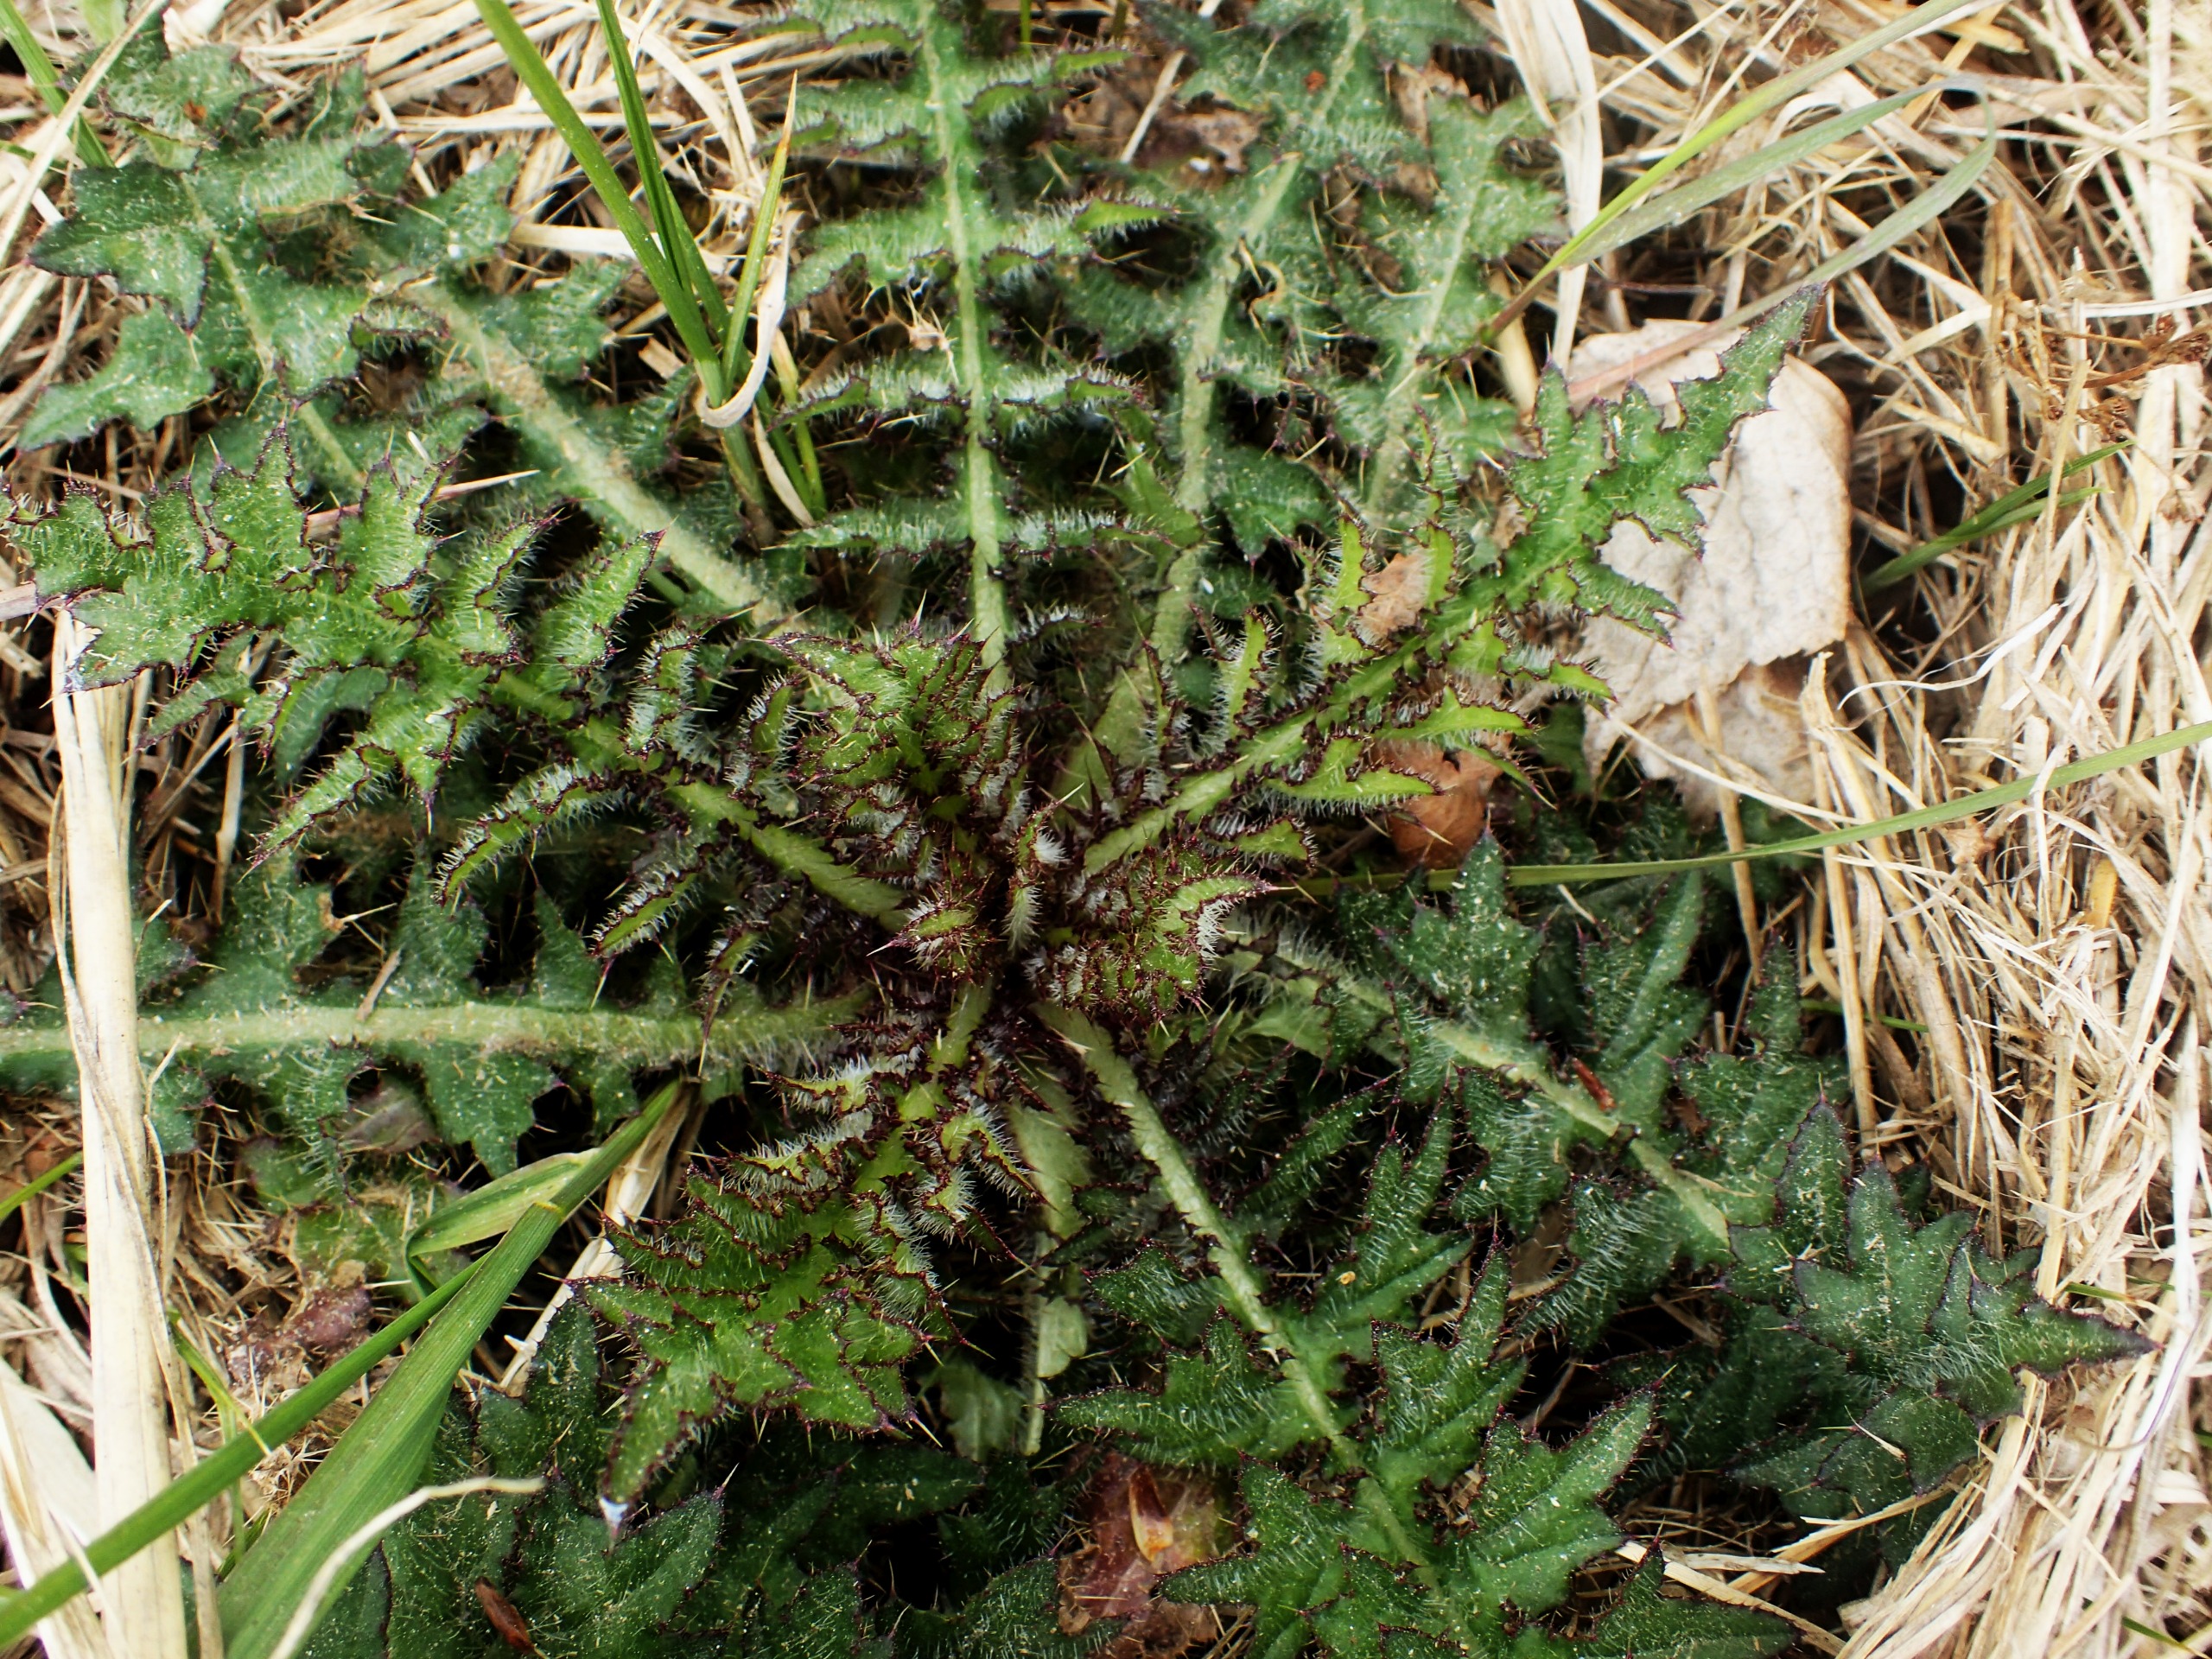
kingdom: Plantae
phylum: Tracheophyta
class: Magnoliopsida
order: Asterales
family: Asteraceae
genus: Cirsium
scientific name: Cirsium palustre
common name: Kær-tidsel
